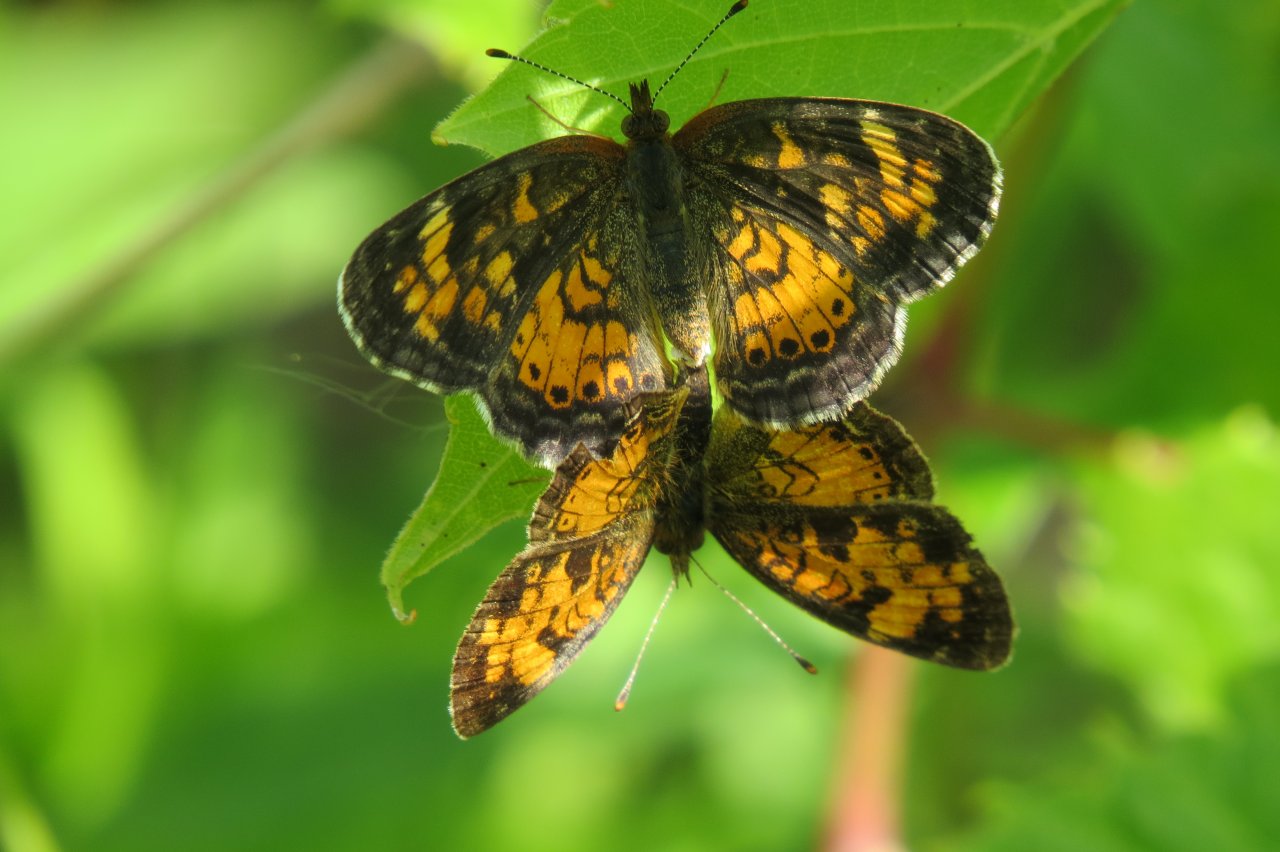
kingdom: Animalia
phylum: Arthropoda
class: Insecta
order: Lepidoptera
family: Nymphalidae
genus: Phyciodes
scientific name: Phyciodes tharos
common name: Northern Crescent
